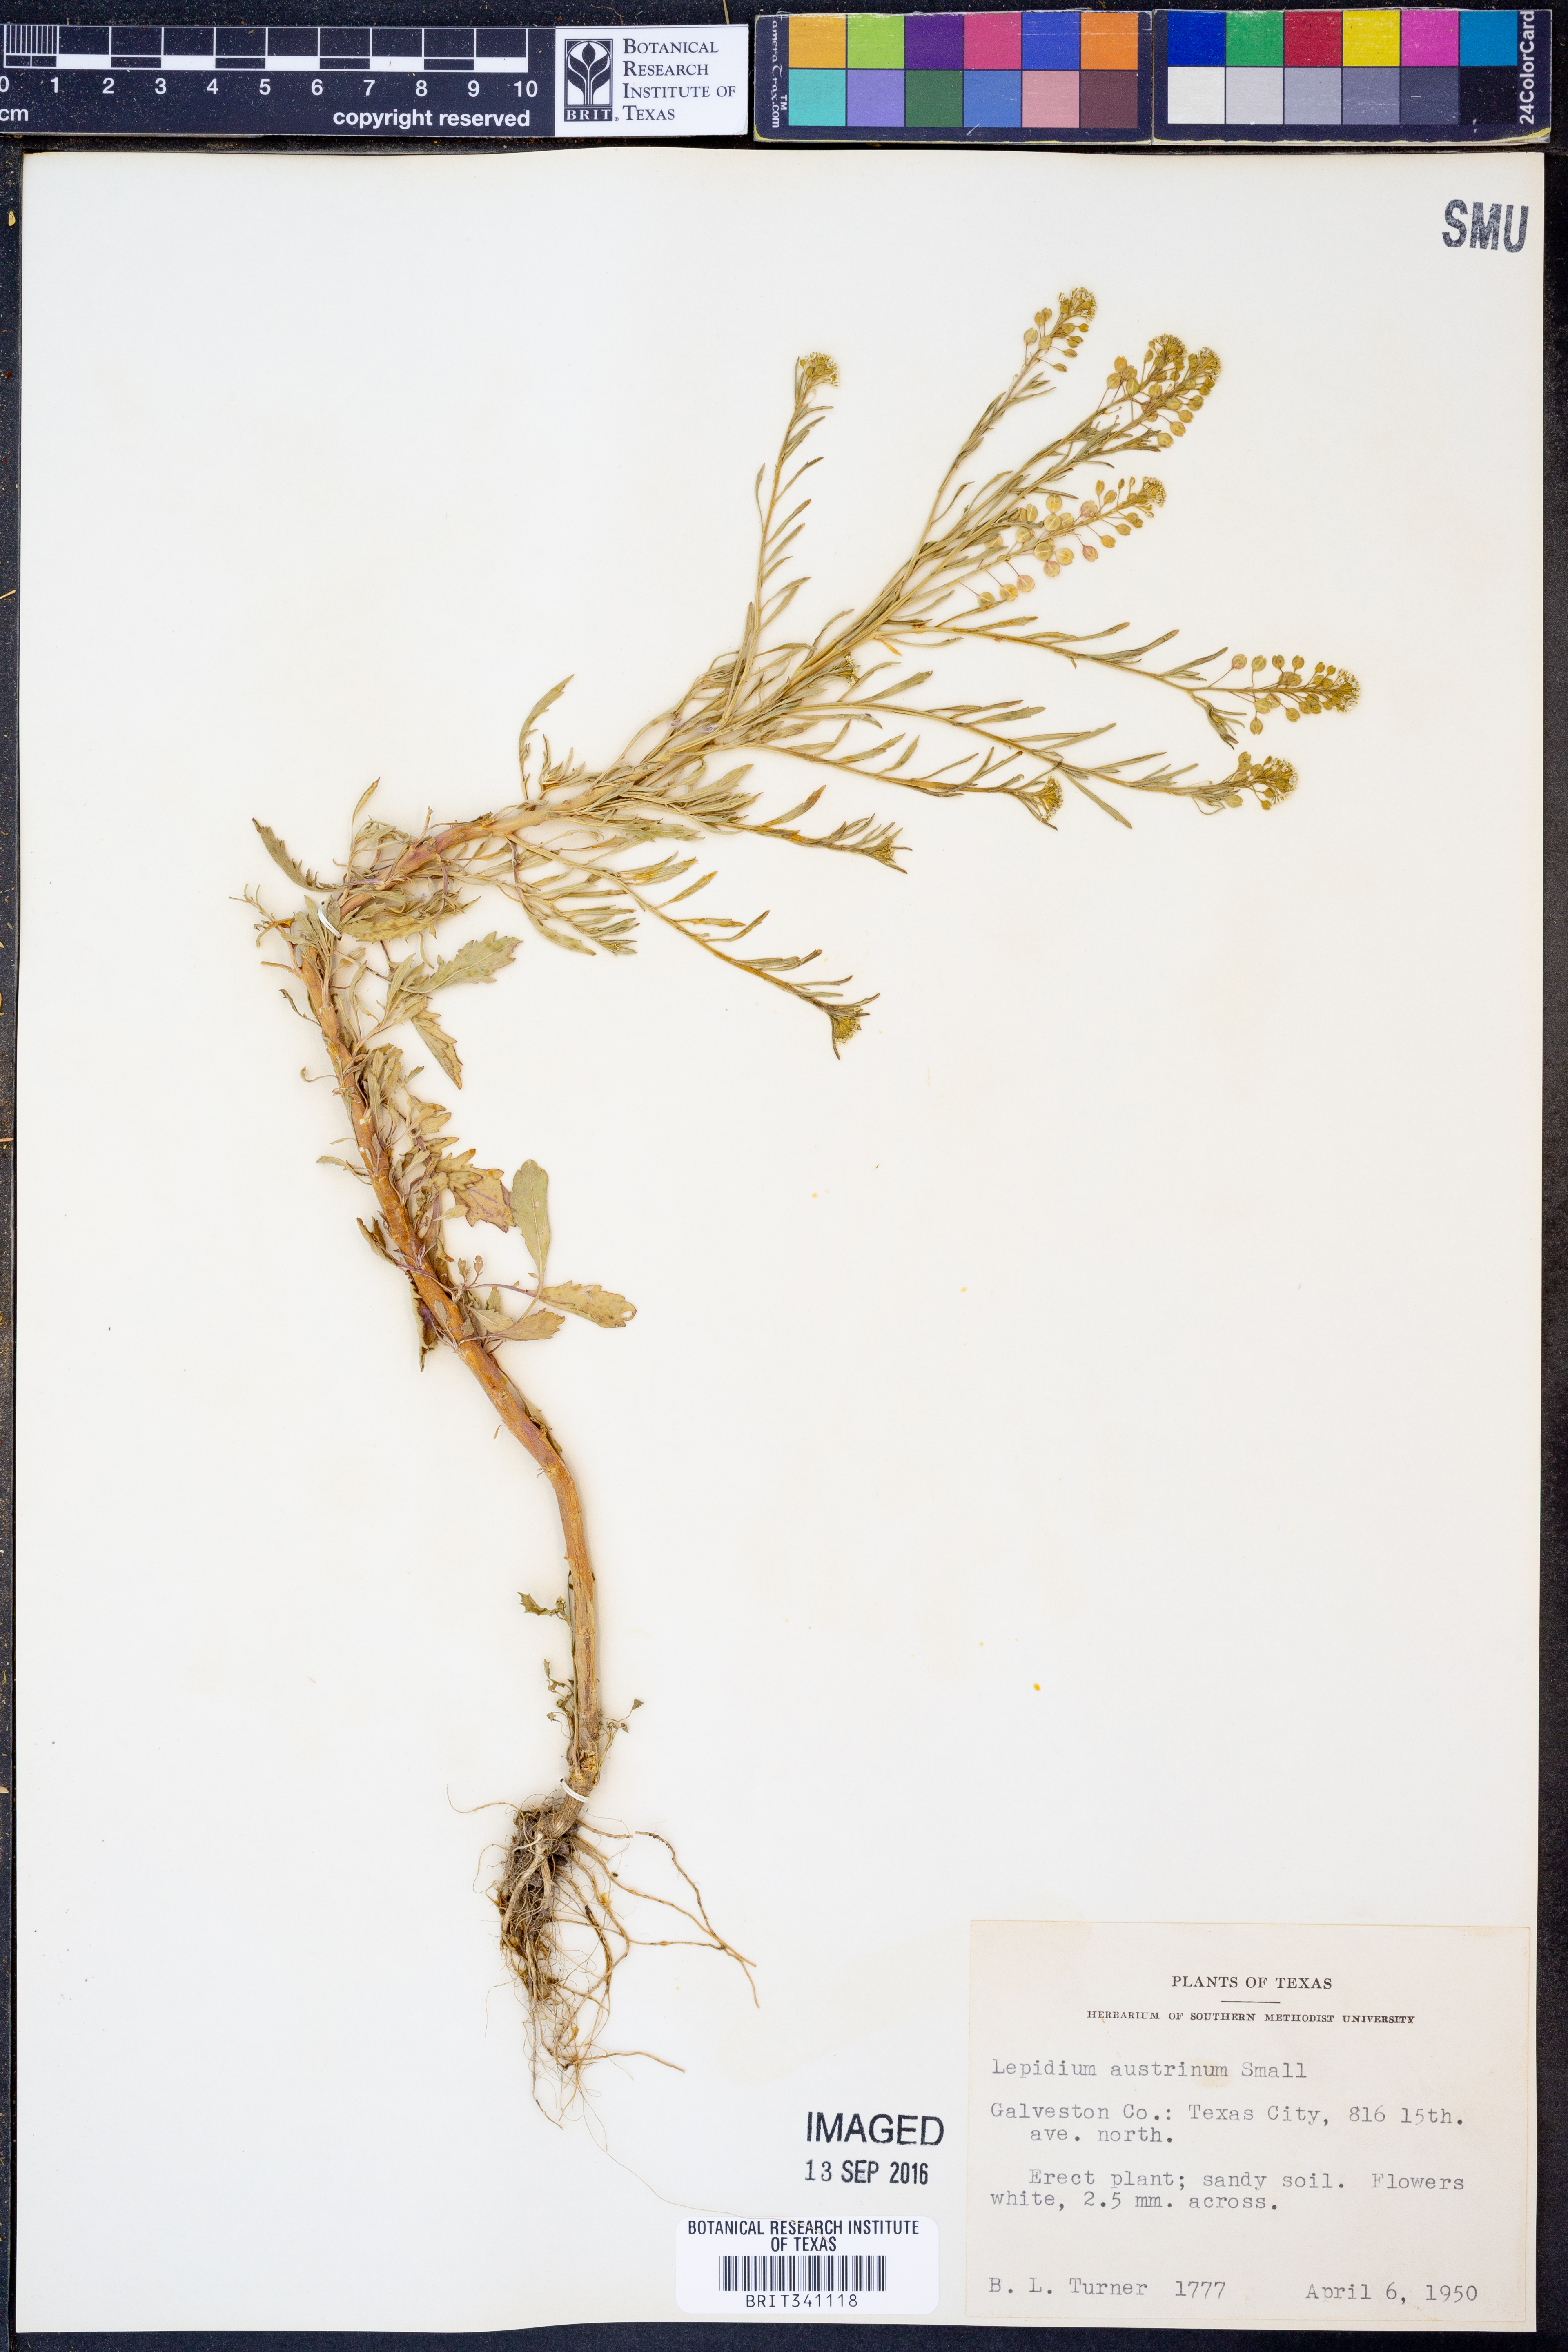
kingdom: Plantae
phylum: Tracheophyta
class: Magnoliopsida
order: Brassicales
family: Brassicaceae
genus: Lepidium
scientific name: Lepidium austrinum
